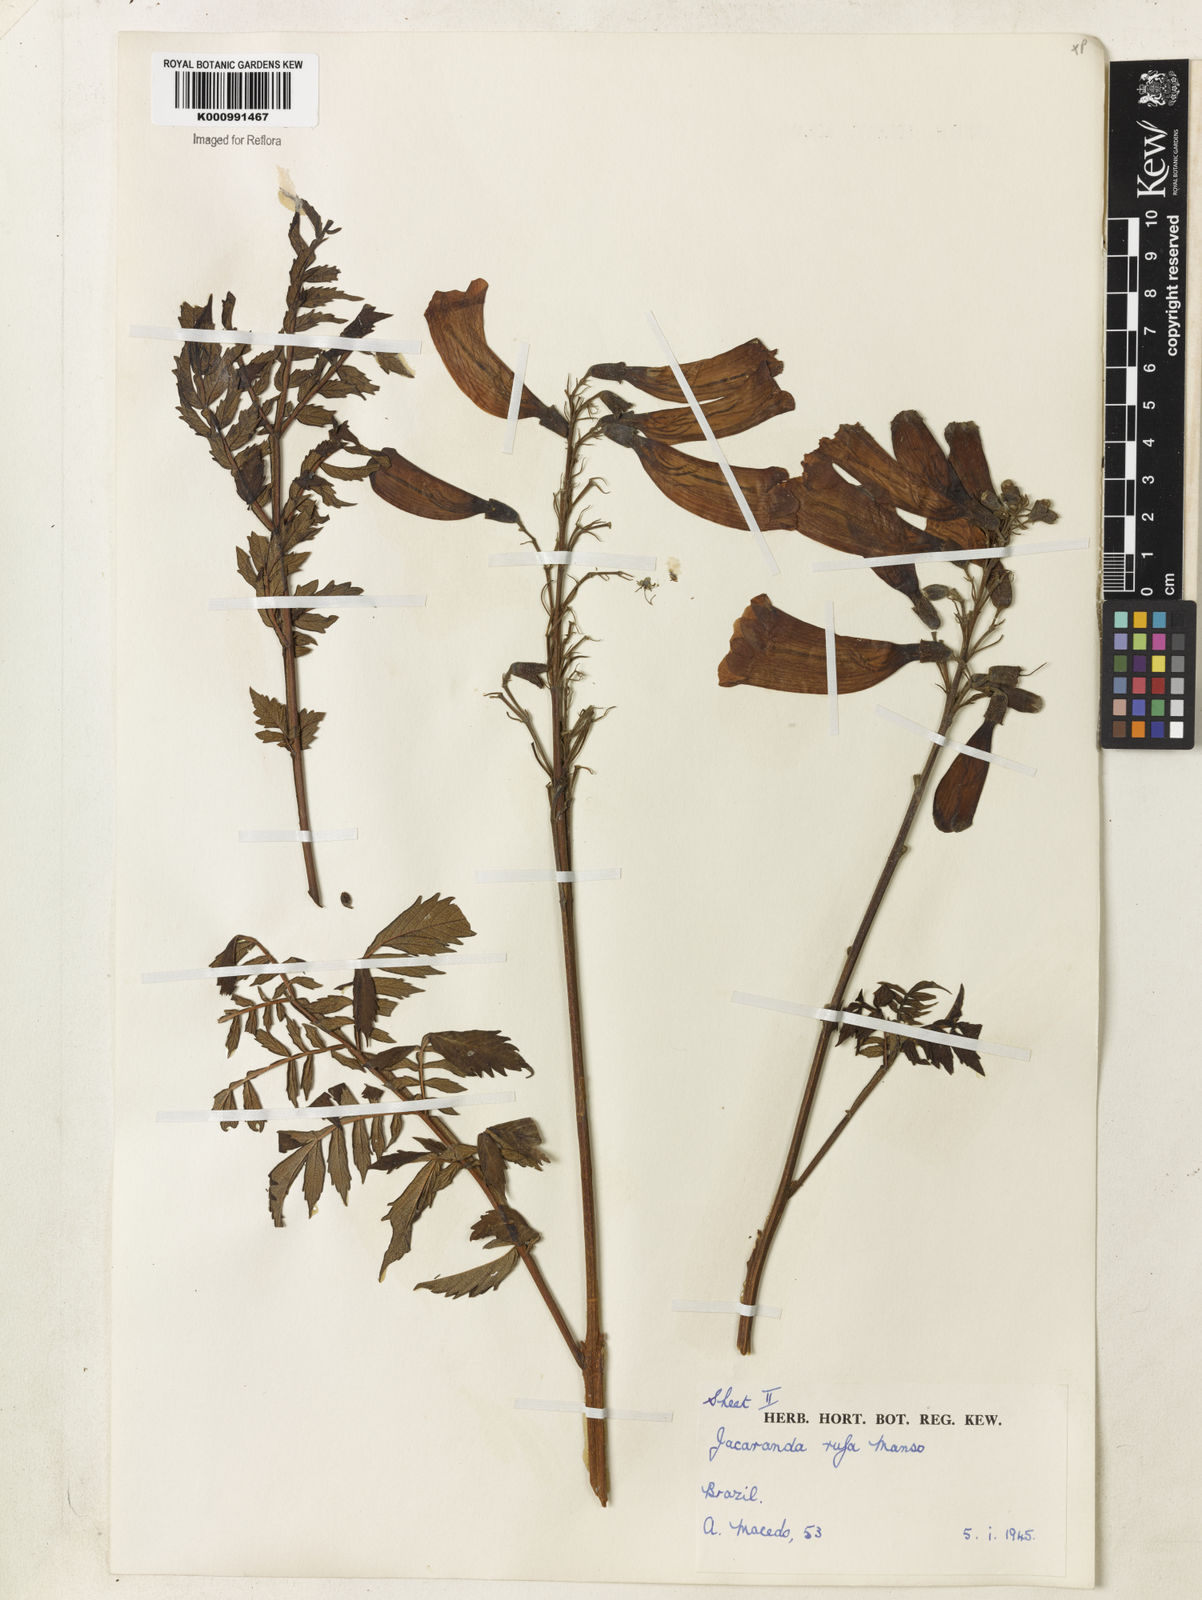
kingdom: Plantae
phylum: Tracheophyta
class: Magnoliopsida
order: Lamiales
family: Bignoniaceae
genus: Jacaranda
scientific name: Jacaranda rufa
